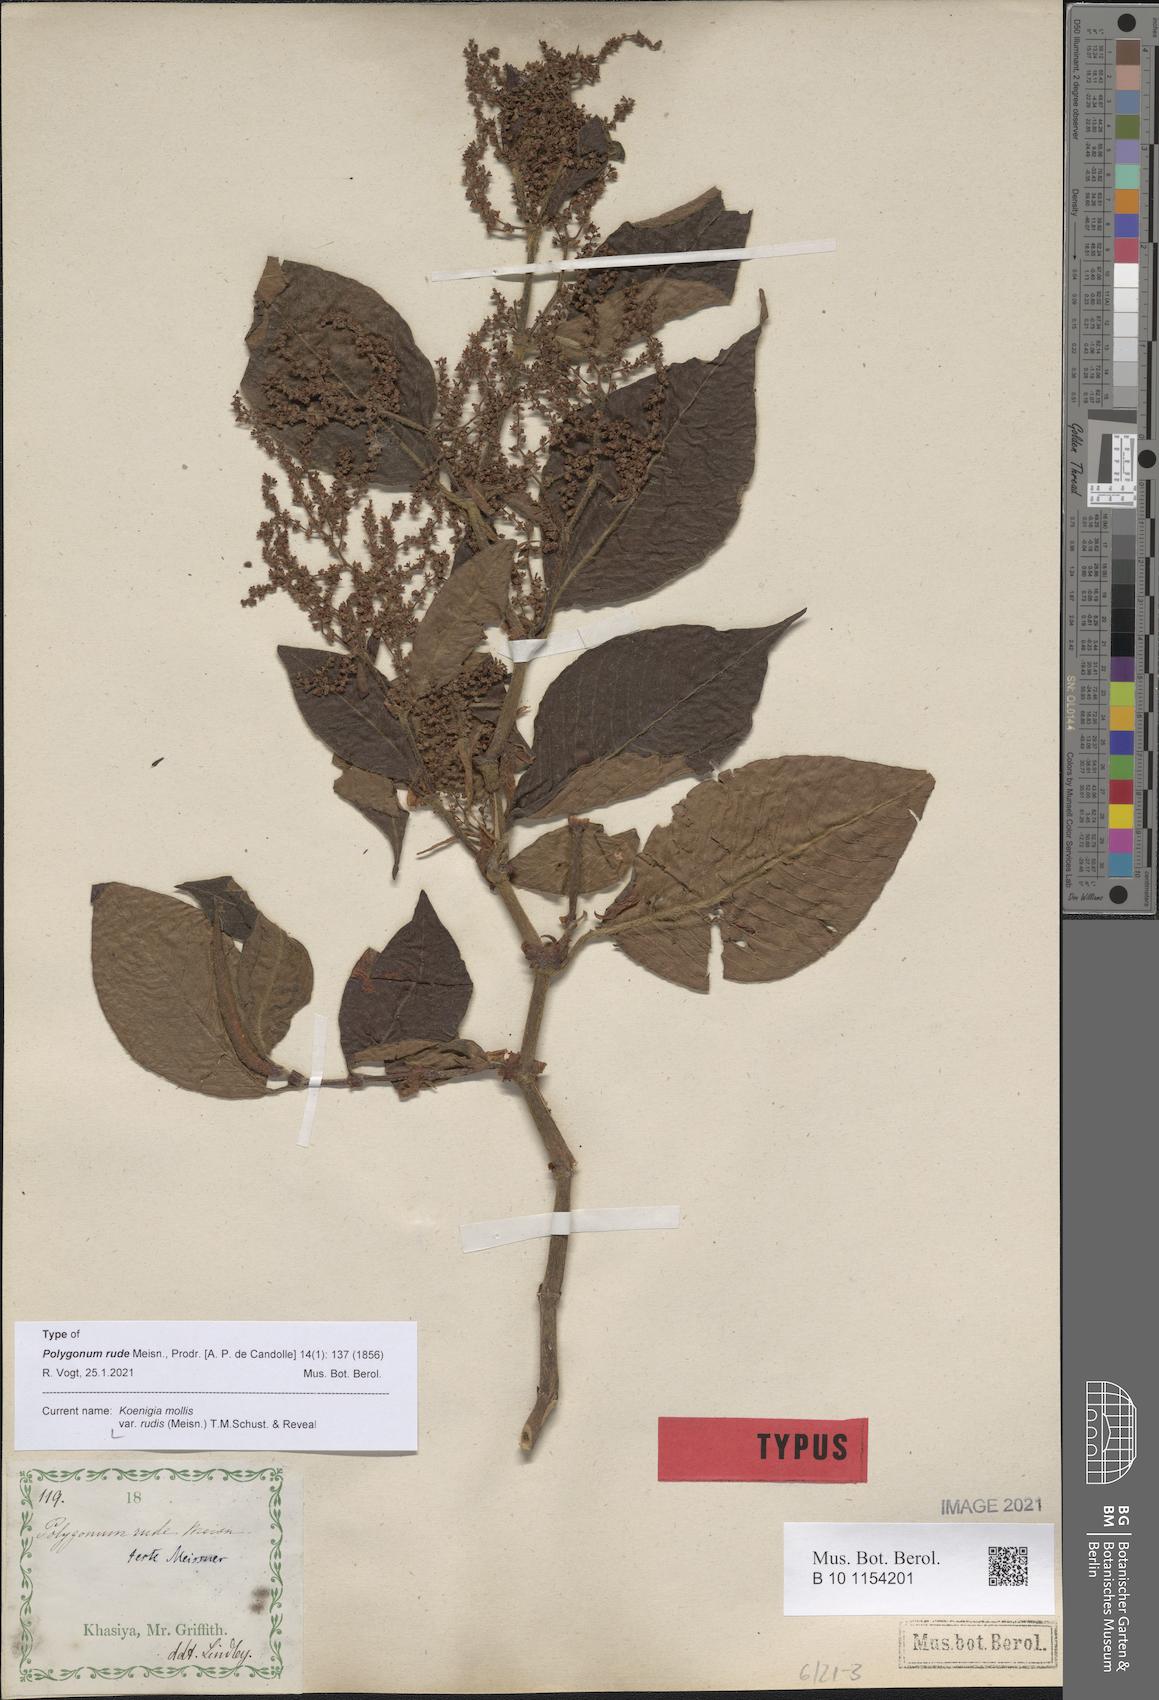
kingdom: Plantae
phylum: Tracheophyta
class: Magnoliopsida
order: Caryophyllales
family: Polygonaceae
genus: Koenigia
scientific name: Koenigia mollis
